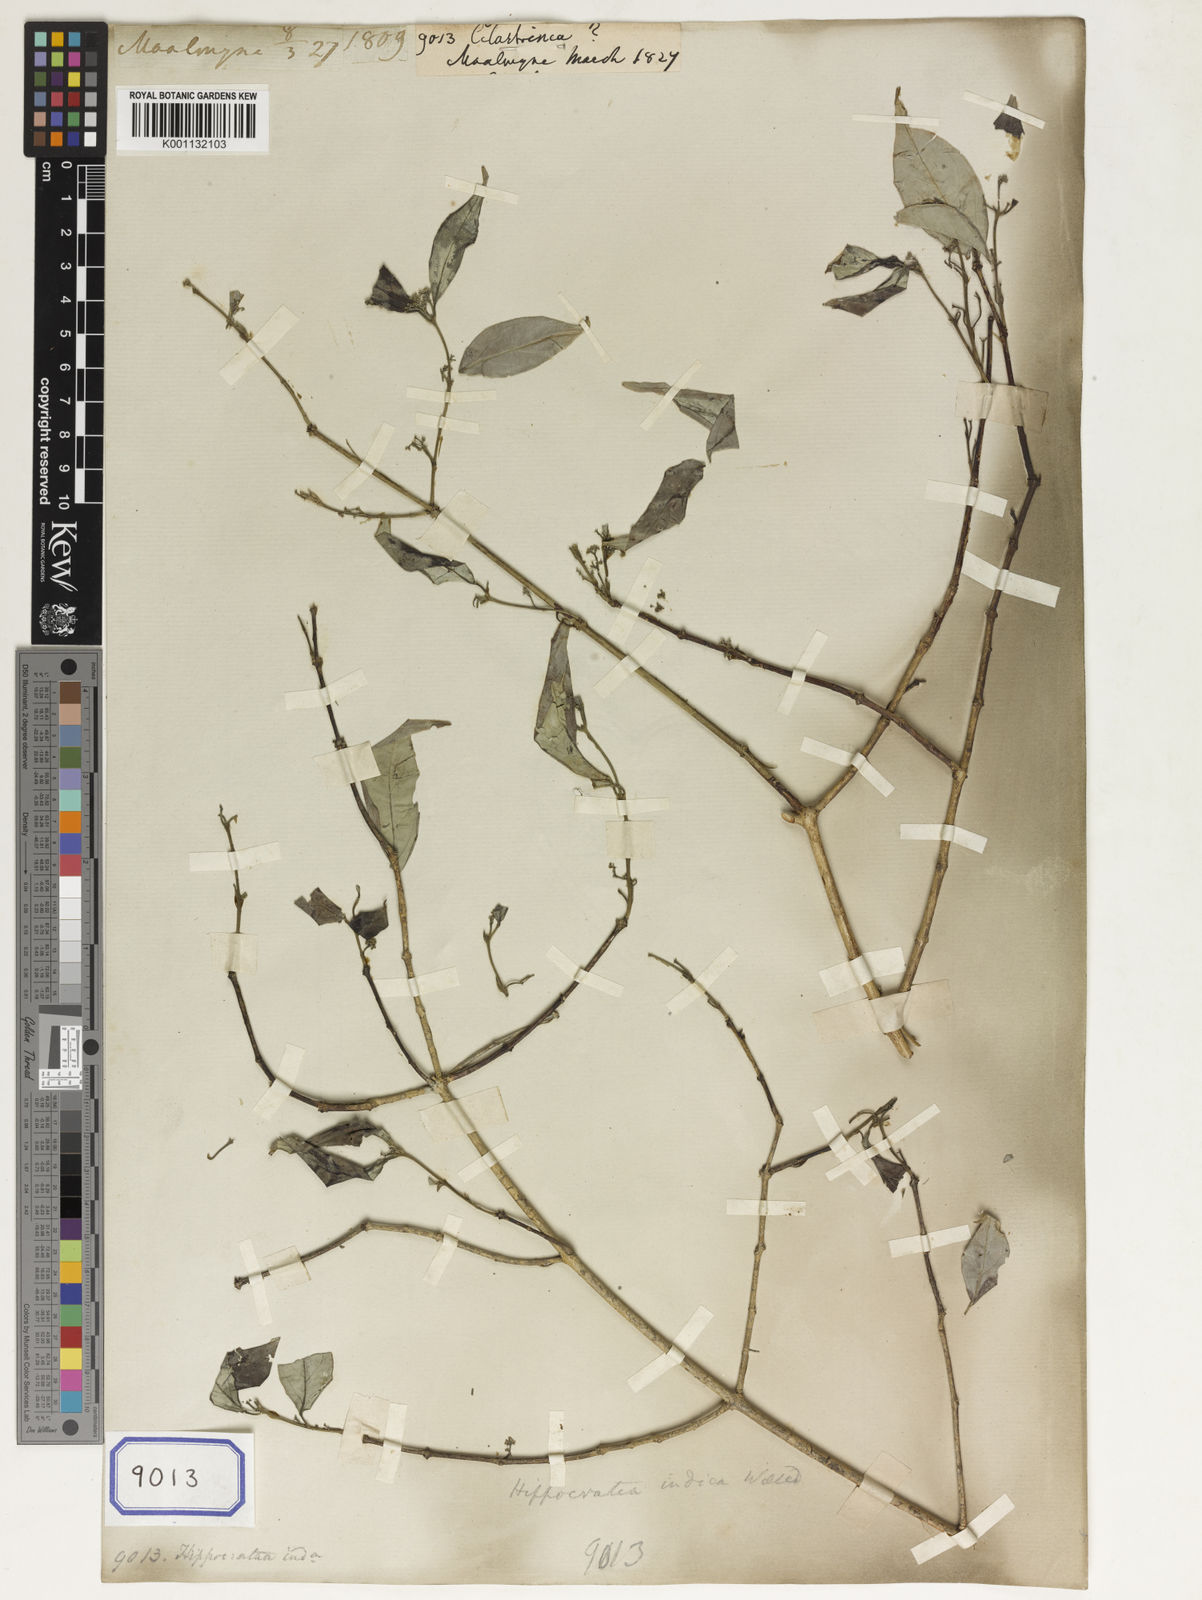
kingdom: Plantae
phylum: Tracheophyta
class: Magnoliopsida
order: Celastrales
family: Celastraceae
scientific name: Celastraceae
